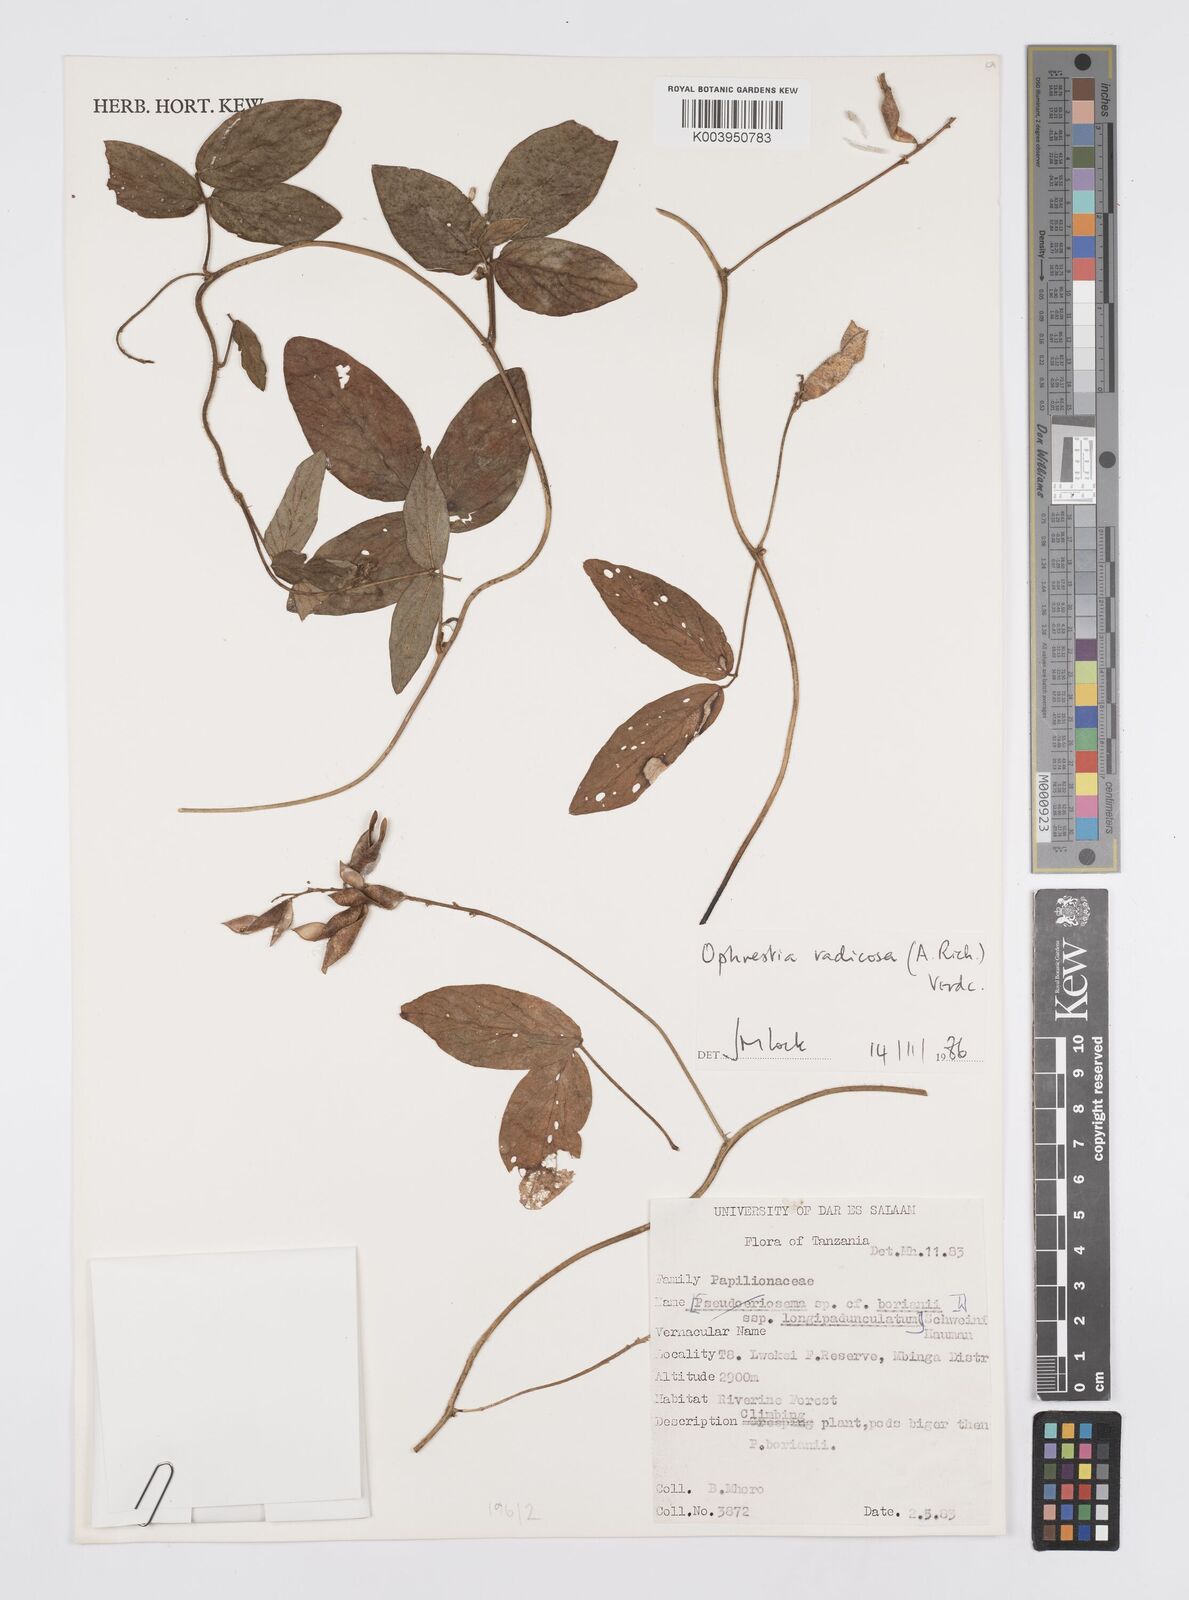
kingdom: Plantae
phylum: Tracheophyta
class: Magnoliopsida
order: Fabales
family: Fabaceae
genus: Ophrestia
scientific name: Ophrestia radicosa
